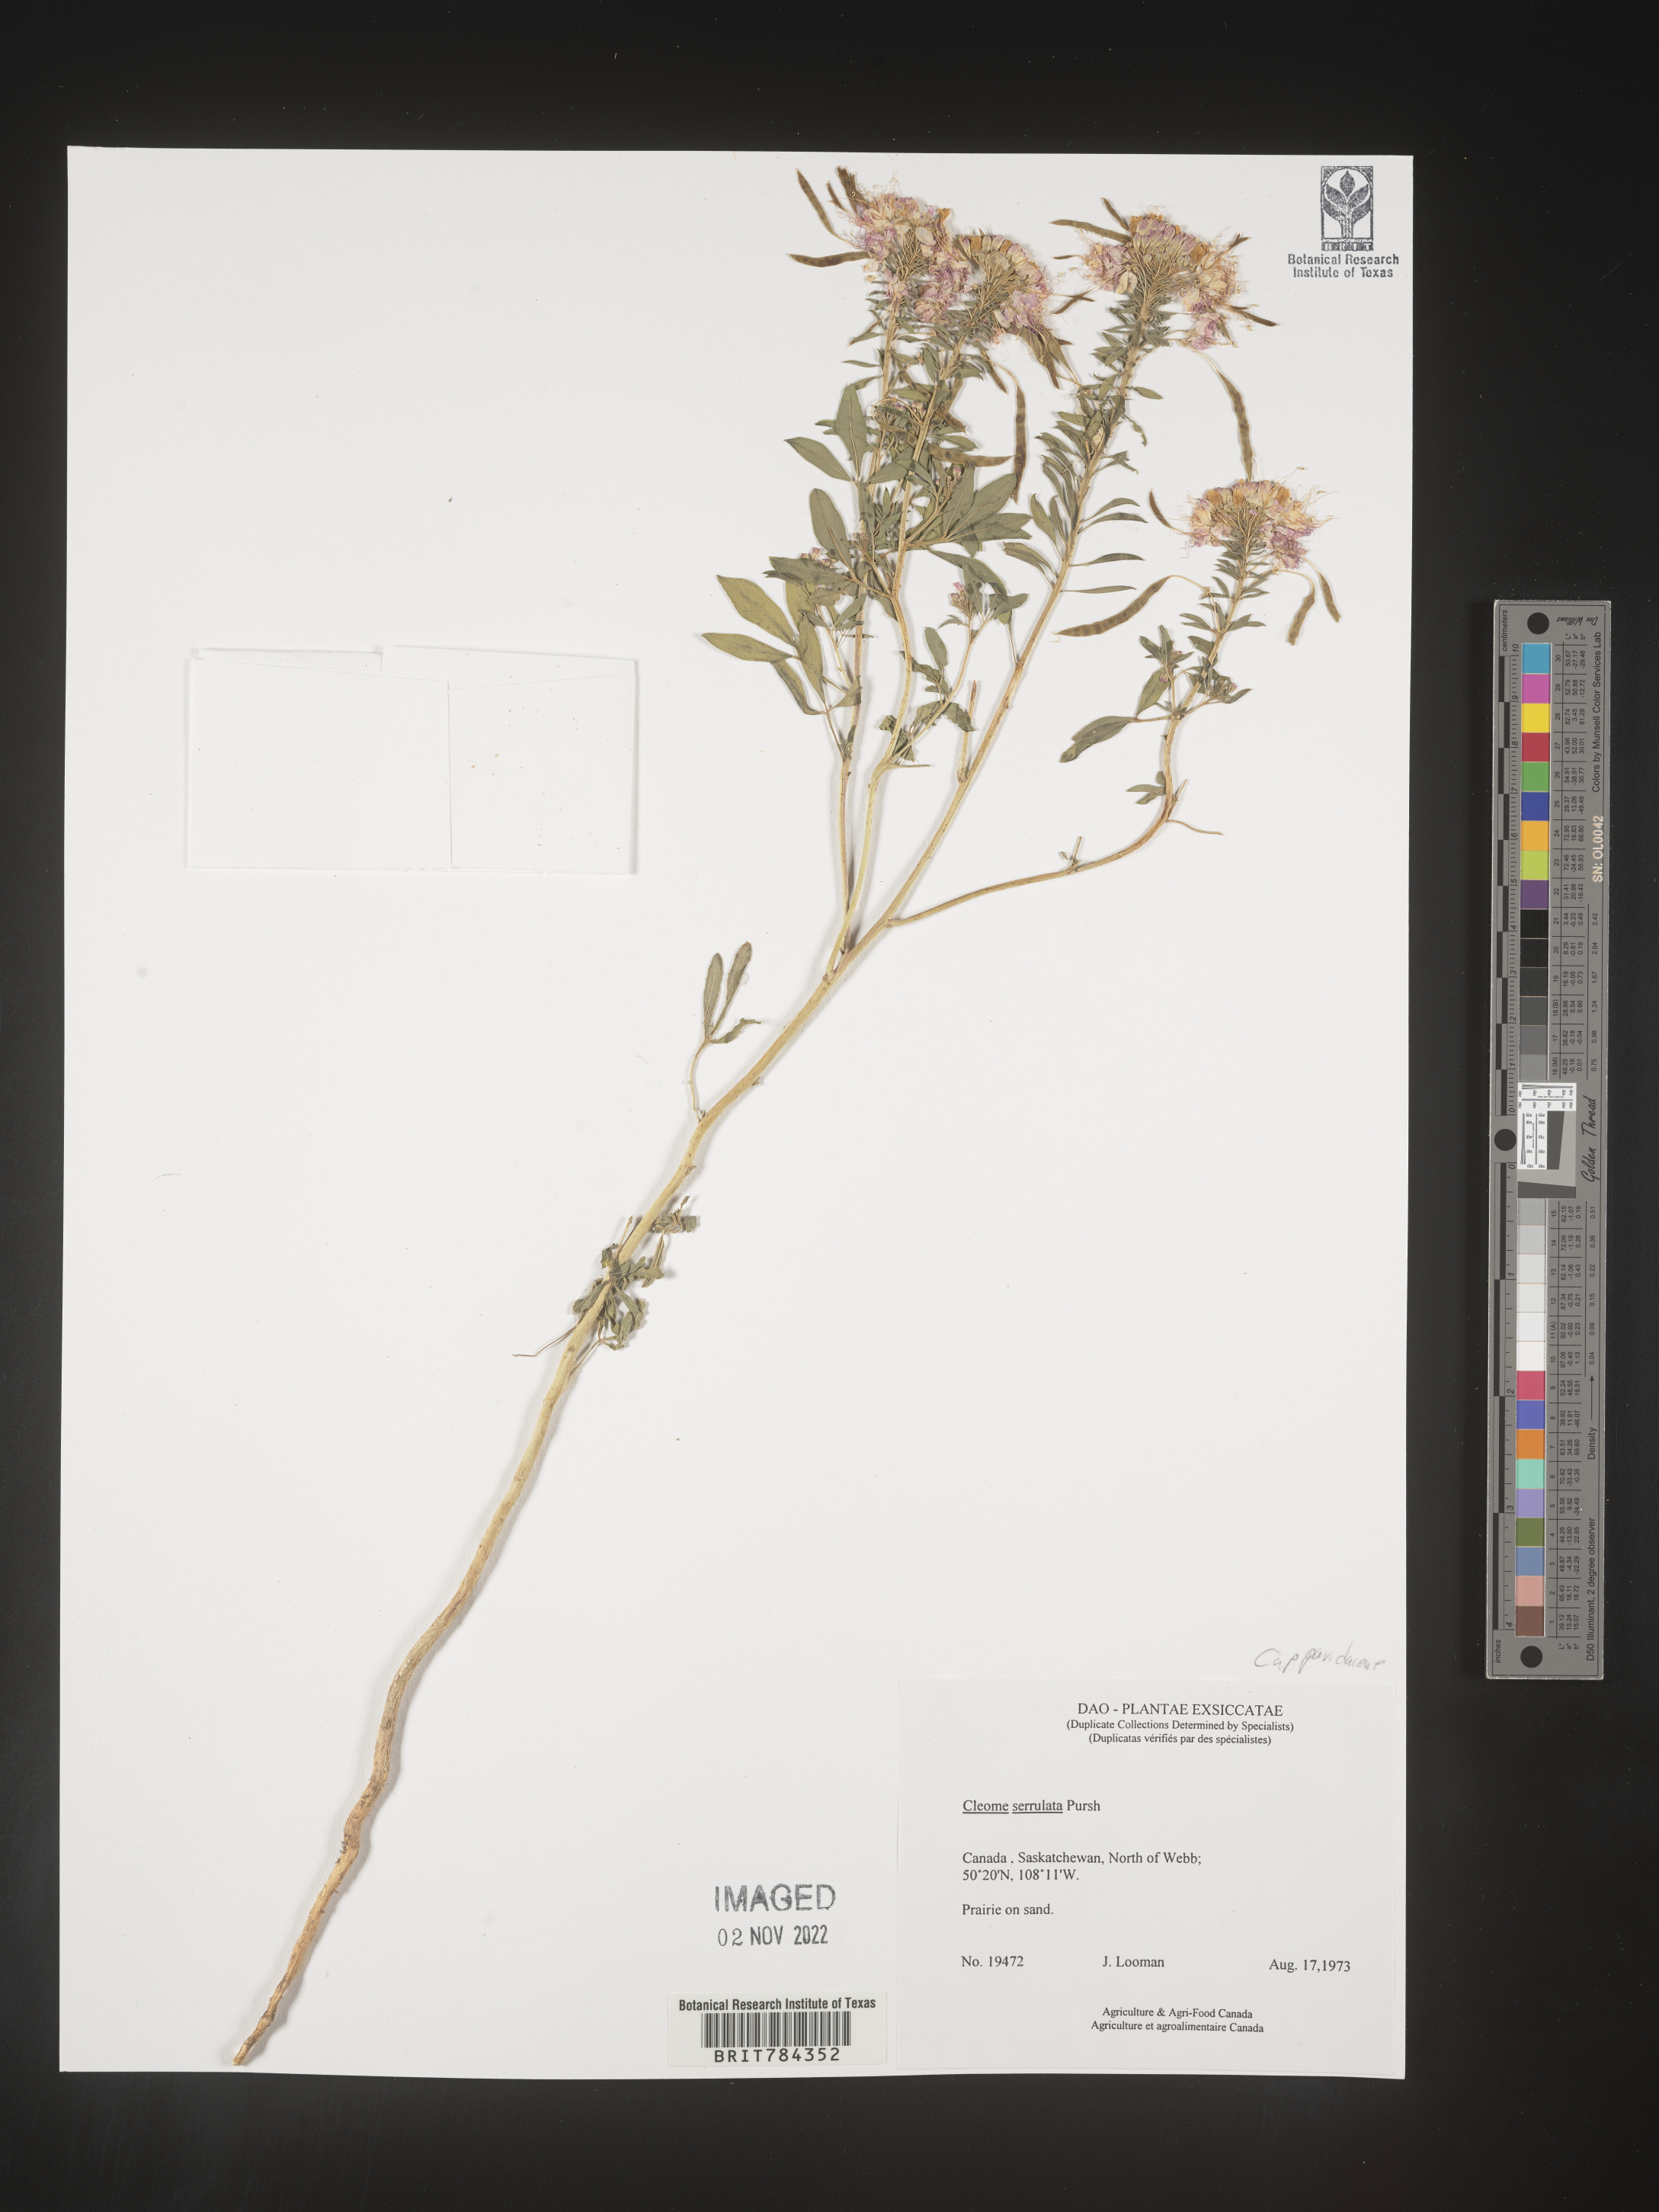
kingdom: Plantae
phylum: Tracheophyta
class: Magnoliopsida
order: Brassicales
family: Cleomaceae
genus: Cleomella
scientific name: Cleomella serrulata
